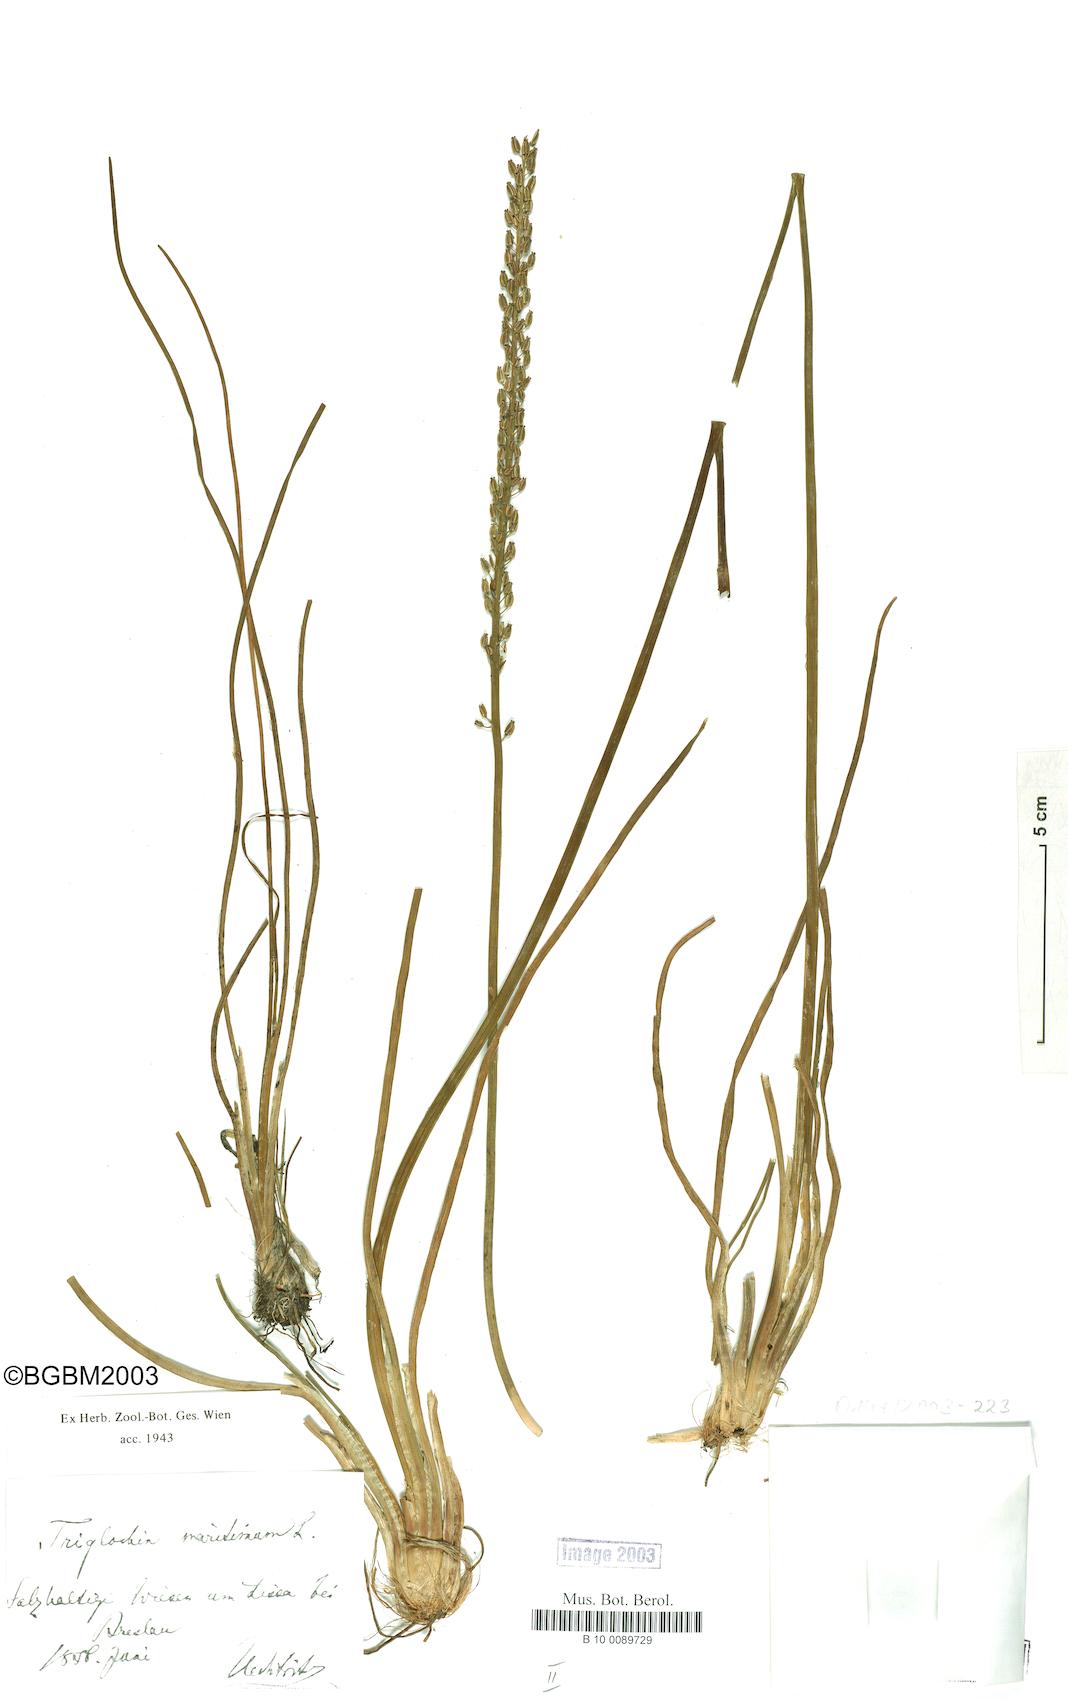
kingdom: Plantae
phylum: Tracheophyta
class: Liliopsida
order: Alismatales
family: Juncaginaceae
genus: Triglochin
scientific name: Triglochin maritima
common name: Sea arrowgrass
